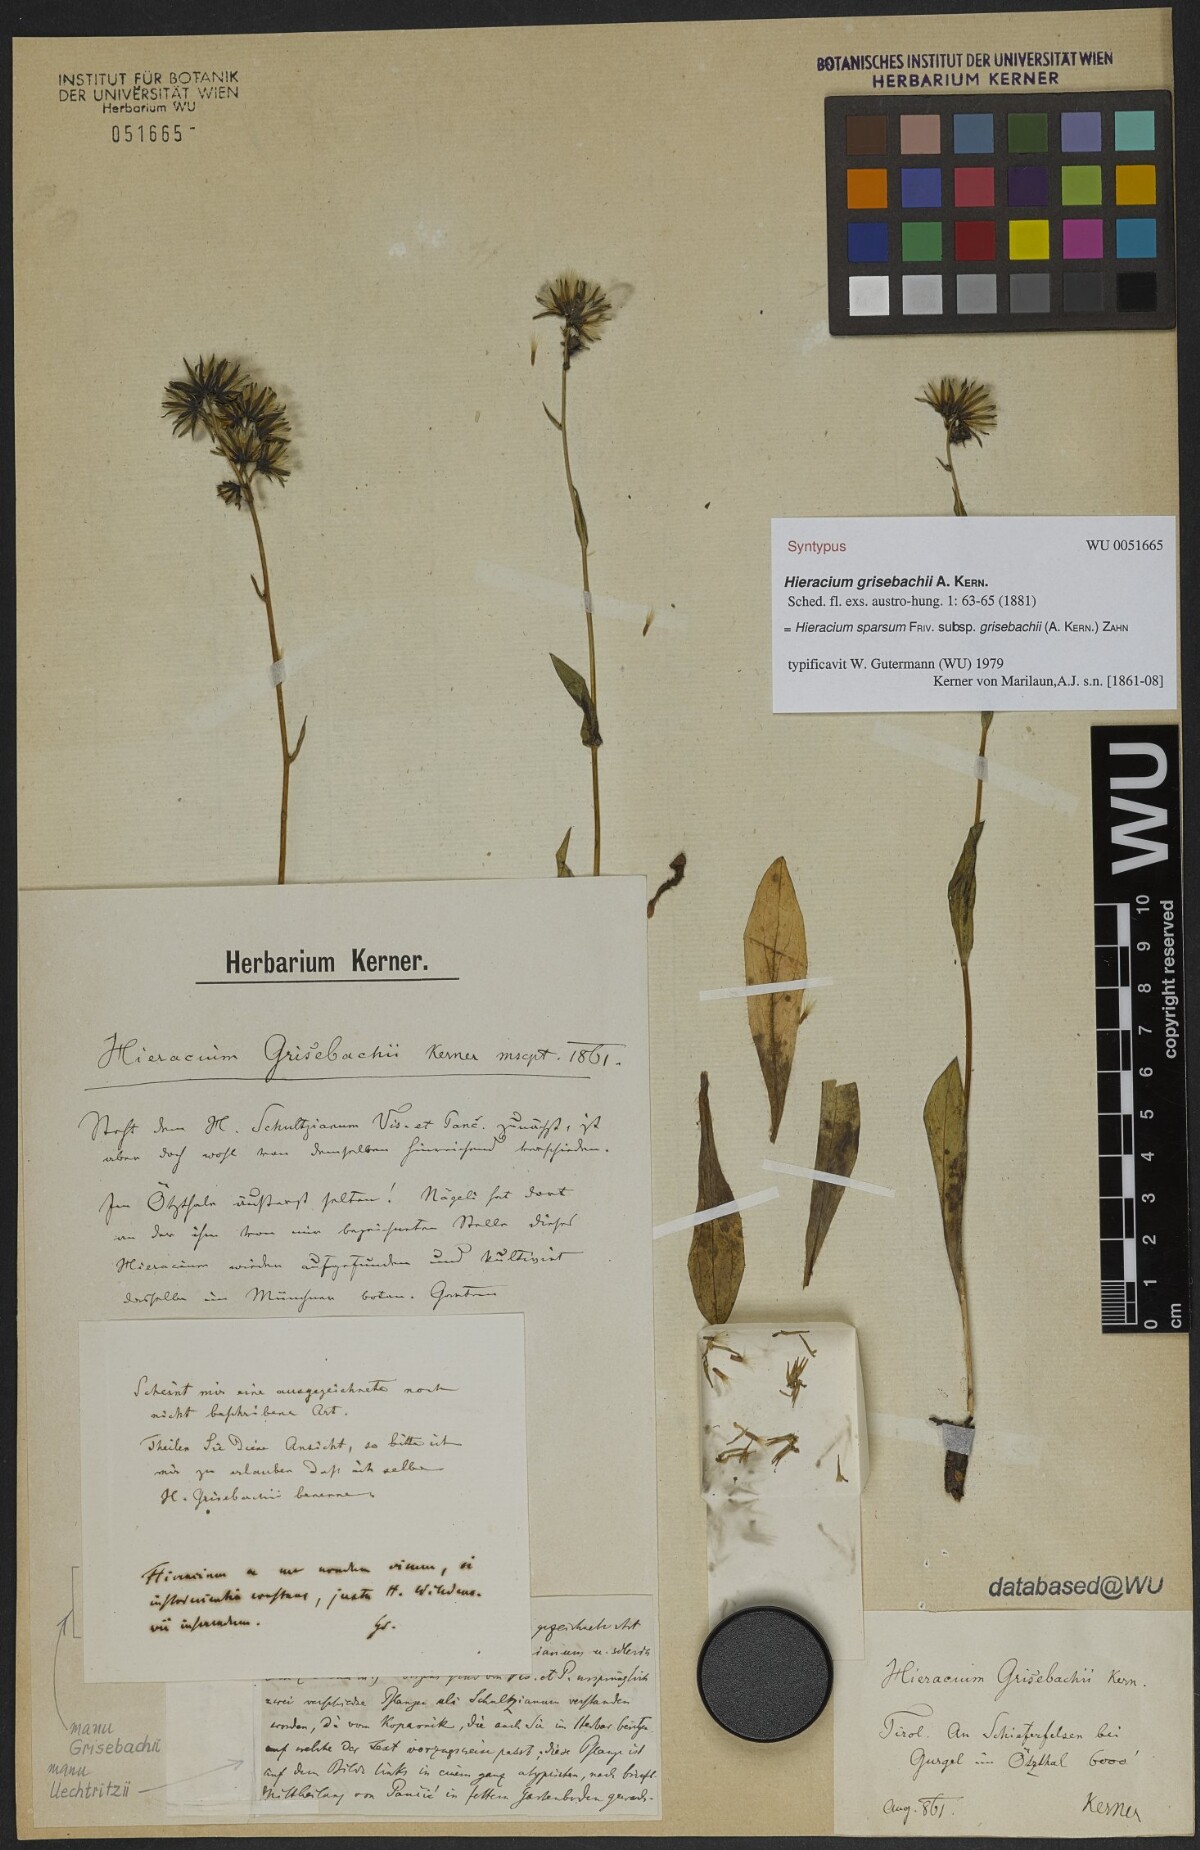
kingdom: Plantae
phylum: Tracheophyta
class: Magnoliopsida
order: Asterales
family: Asteraceae
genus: Hieracium
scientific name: Hieracium sparsum
